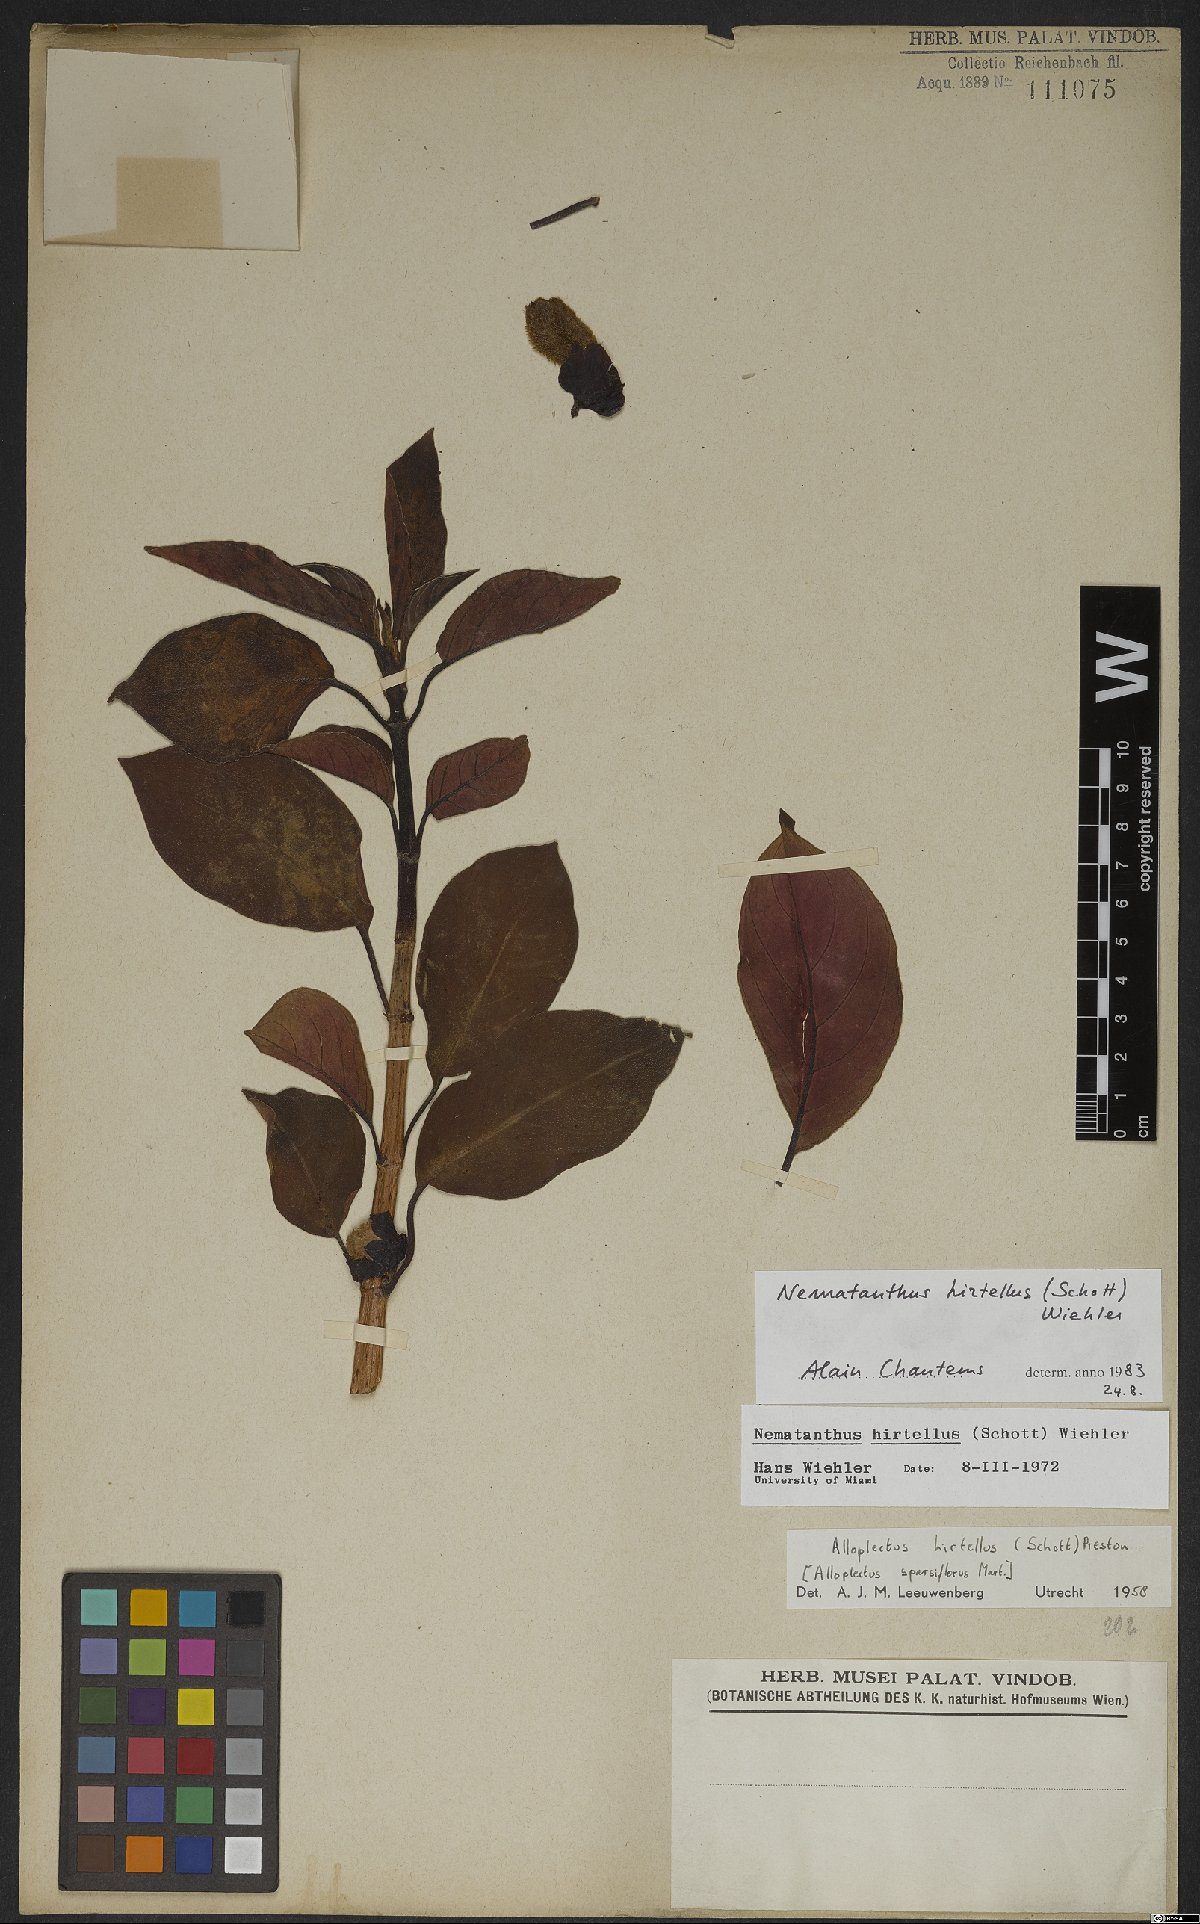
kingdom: Plantae
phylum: Tracheophyta
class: Magnoliopsida
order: Lamiales
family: Gesneriaceae
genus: Nematanthus
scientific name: Nematanthus hirtellus
